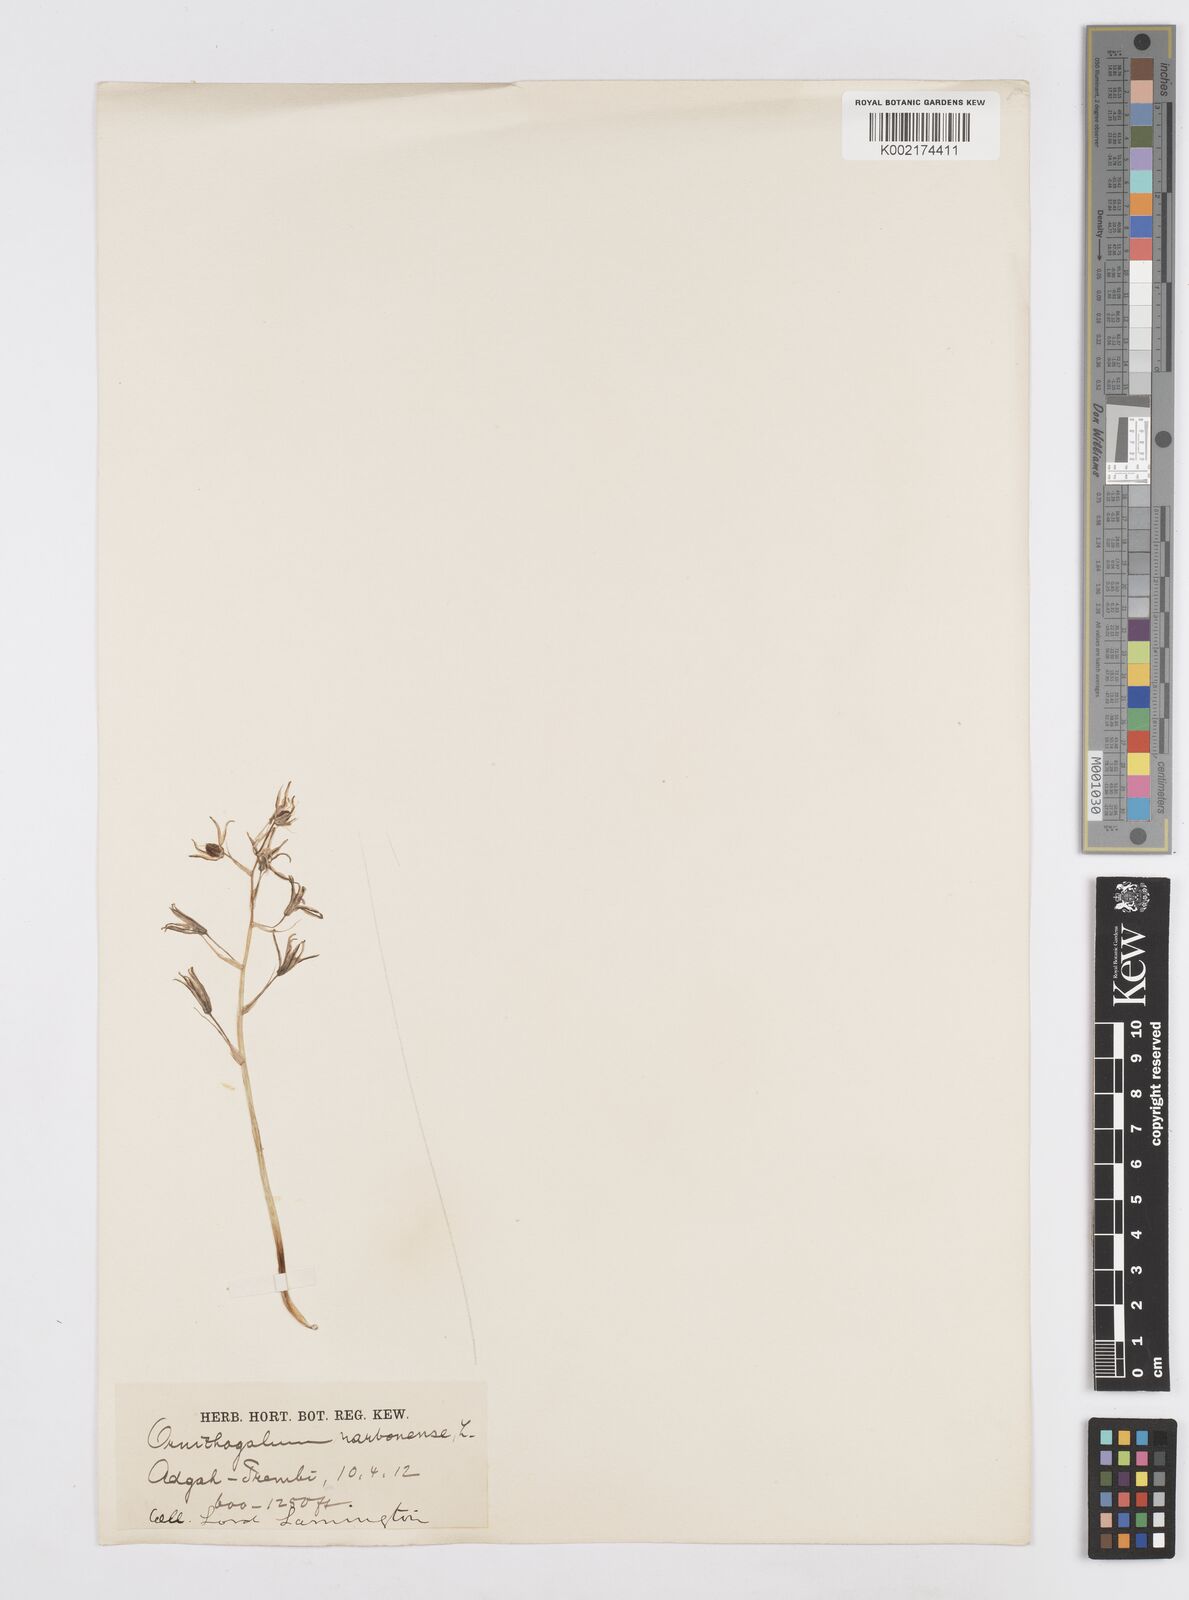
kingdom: Plantae
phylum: Tracheophyta
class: Liliopsida
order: Asparagales
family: Asparagaceae
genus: Ornithogalum
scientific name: Ornithogalum narbonense
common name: Bath-asparagus
